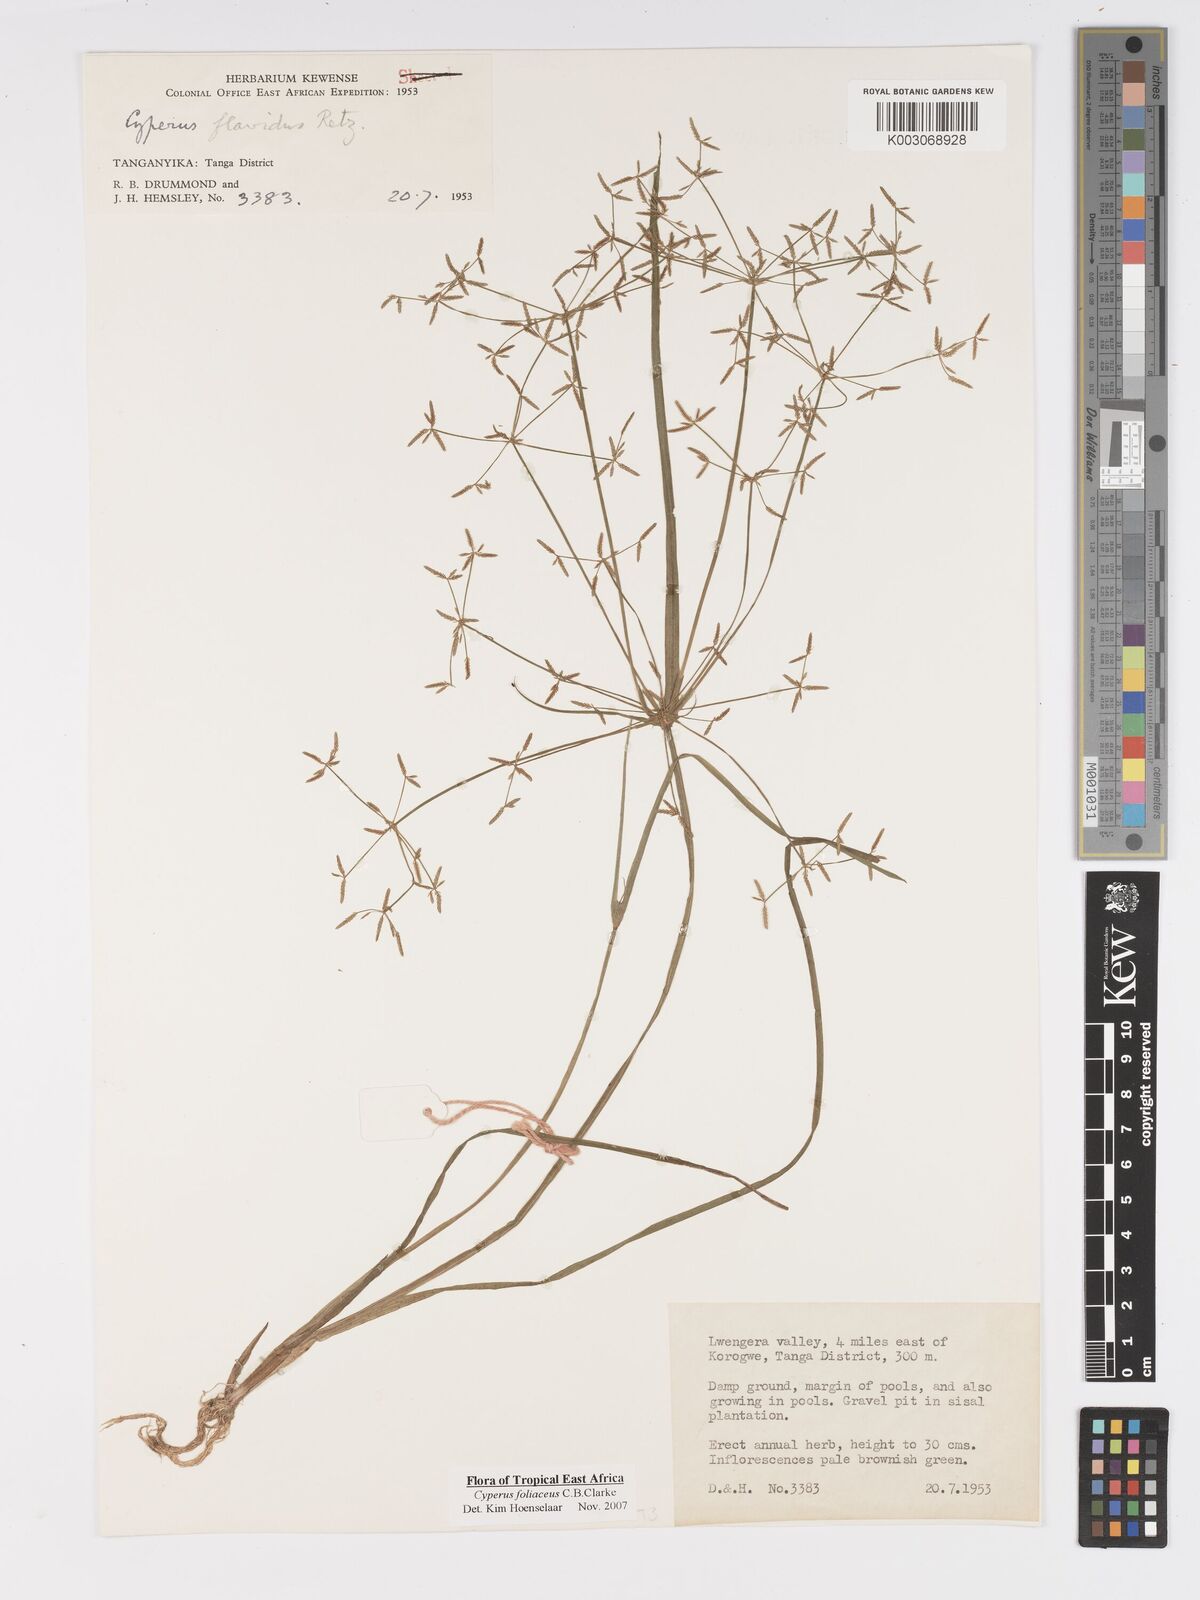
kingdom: Plantae
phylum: Tracheophyta
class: Liliopsida
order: Poales
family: Cyperaceae
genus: Cyperus
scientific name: Cyperus foliaceus
